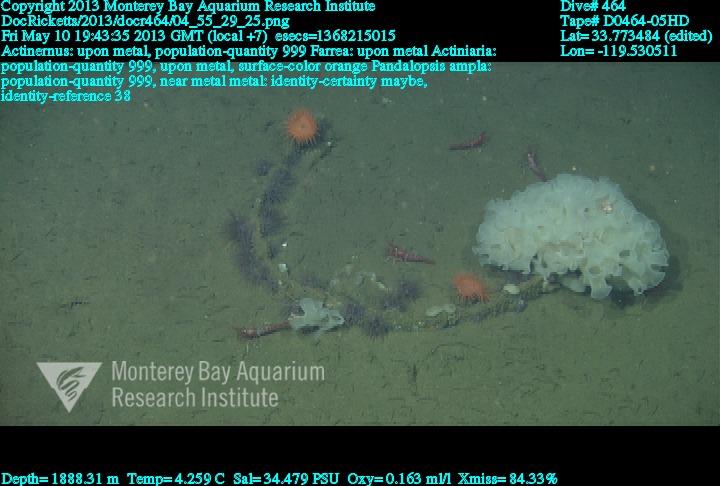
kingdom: Animalia
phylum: Porifera
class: Hexactinellida
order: Sceptrulophora
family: Farreidae
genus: Farrea
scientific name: Farrea
